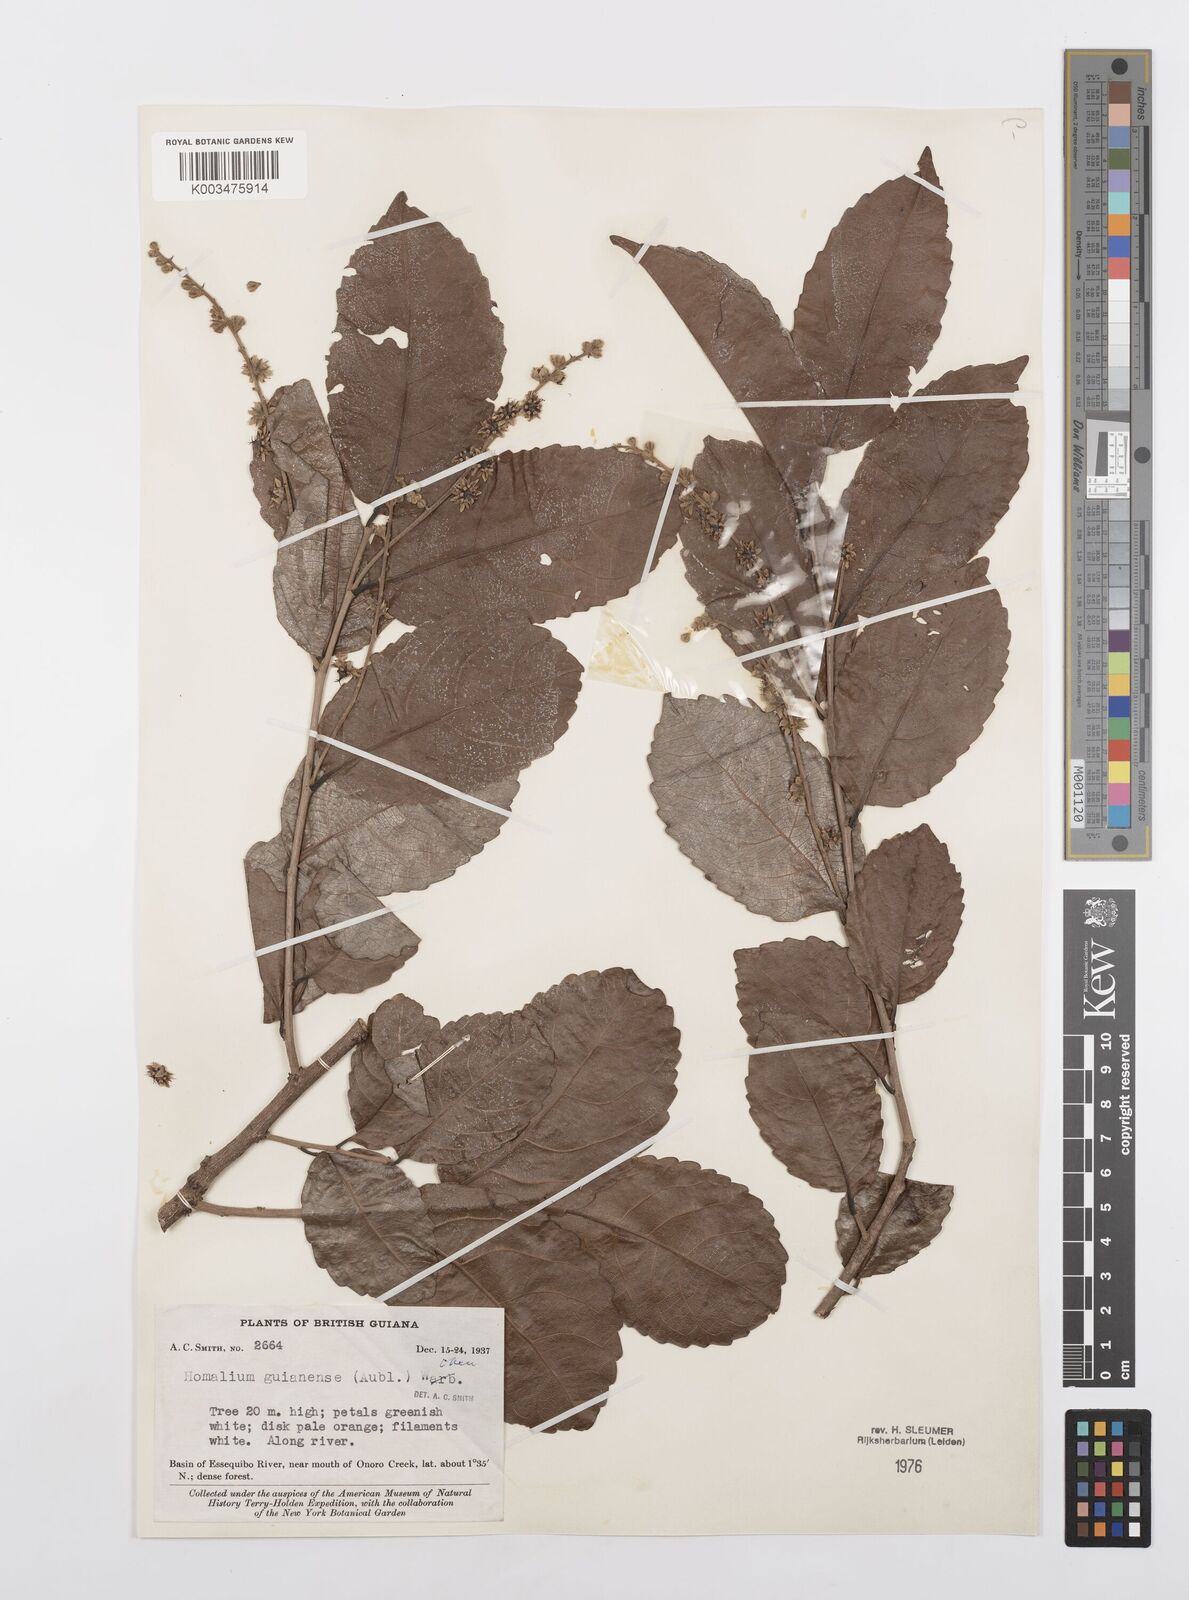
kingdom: Plantae
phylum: Tracheophyta
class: Magnoliopsida
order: Malpighiales
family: Salicaceae
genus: Homalium
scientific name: Homalium guianense
